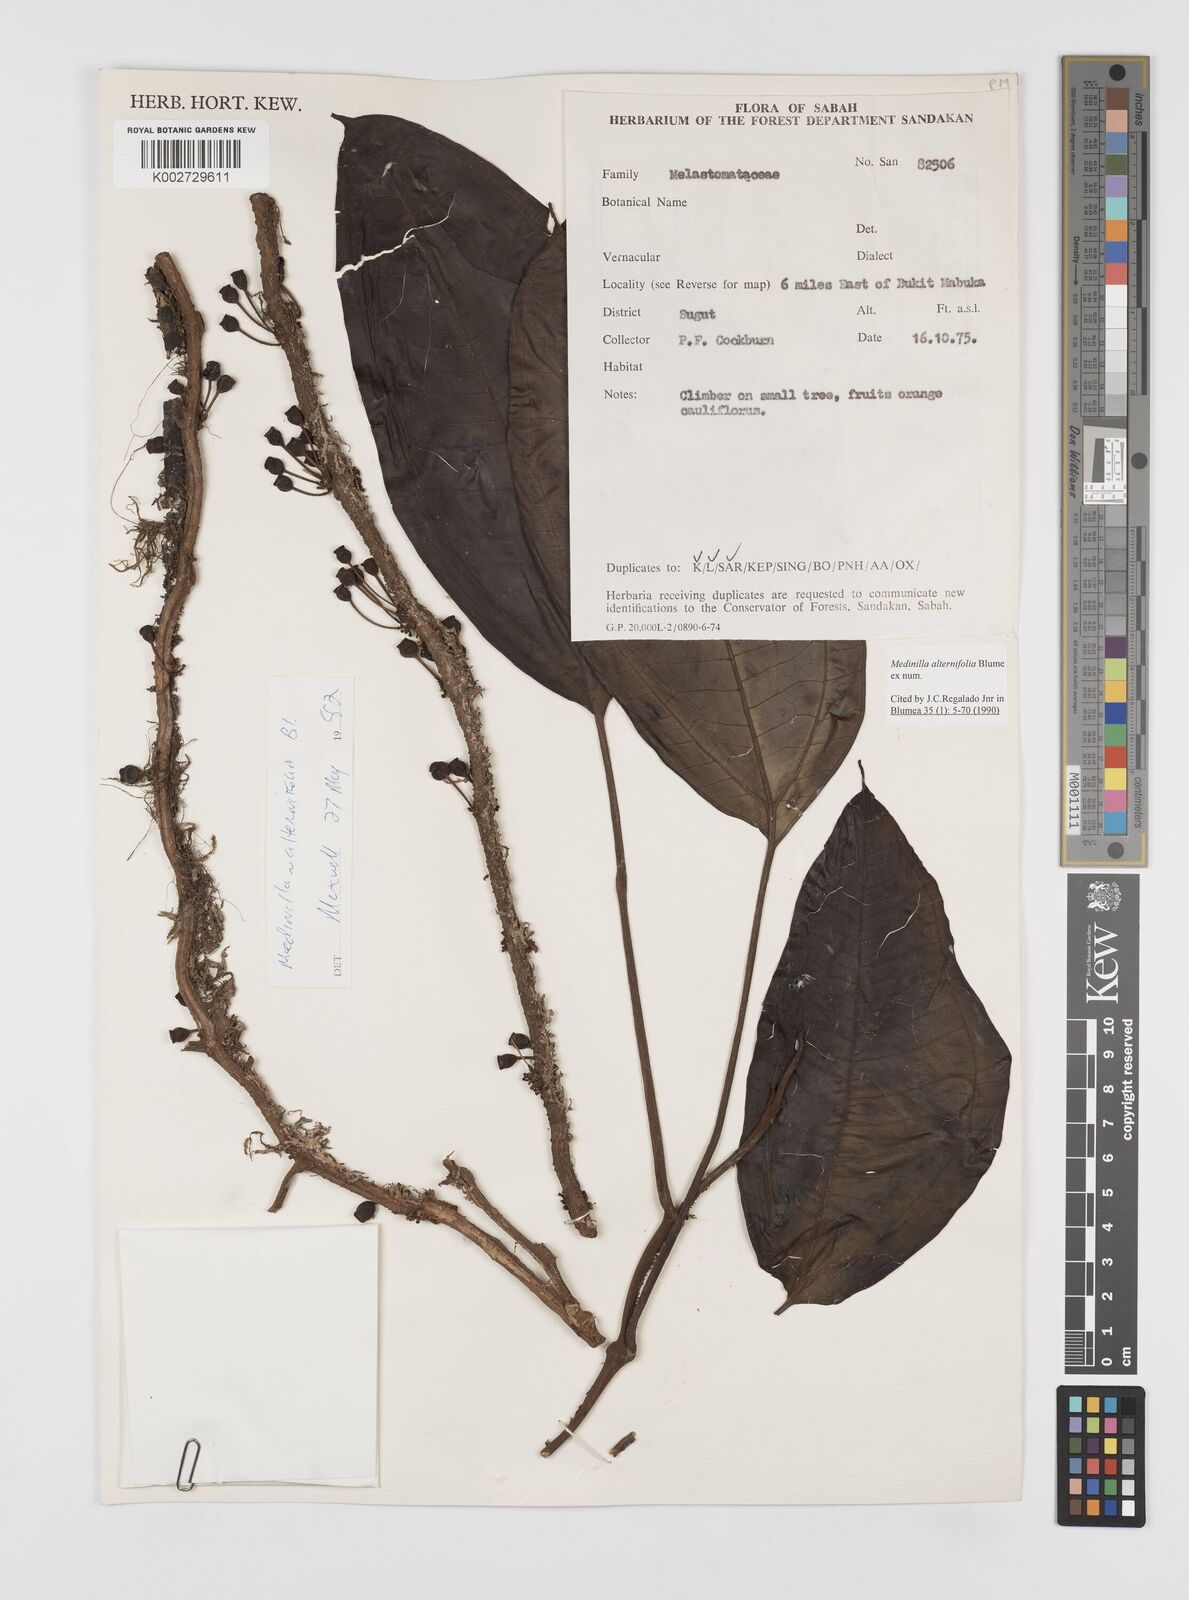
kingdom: Plantae
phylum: Tracheophyta
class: Magnoliopsida
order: Myrtales
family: Melastomataceae
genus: Heteroblemma
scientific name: Heteroblemma alternifolium
